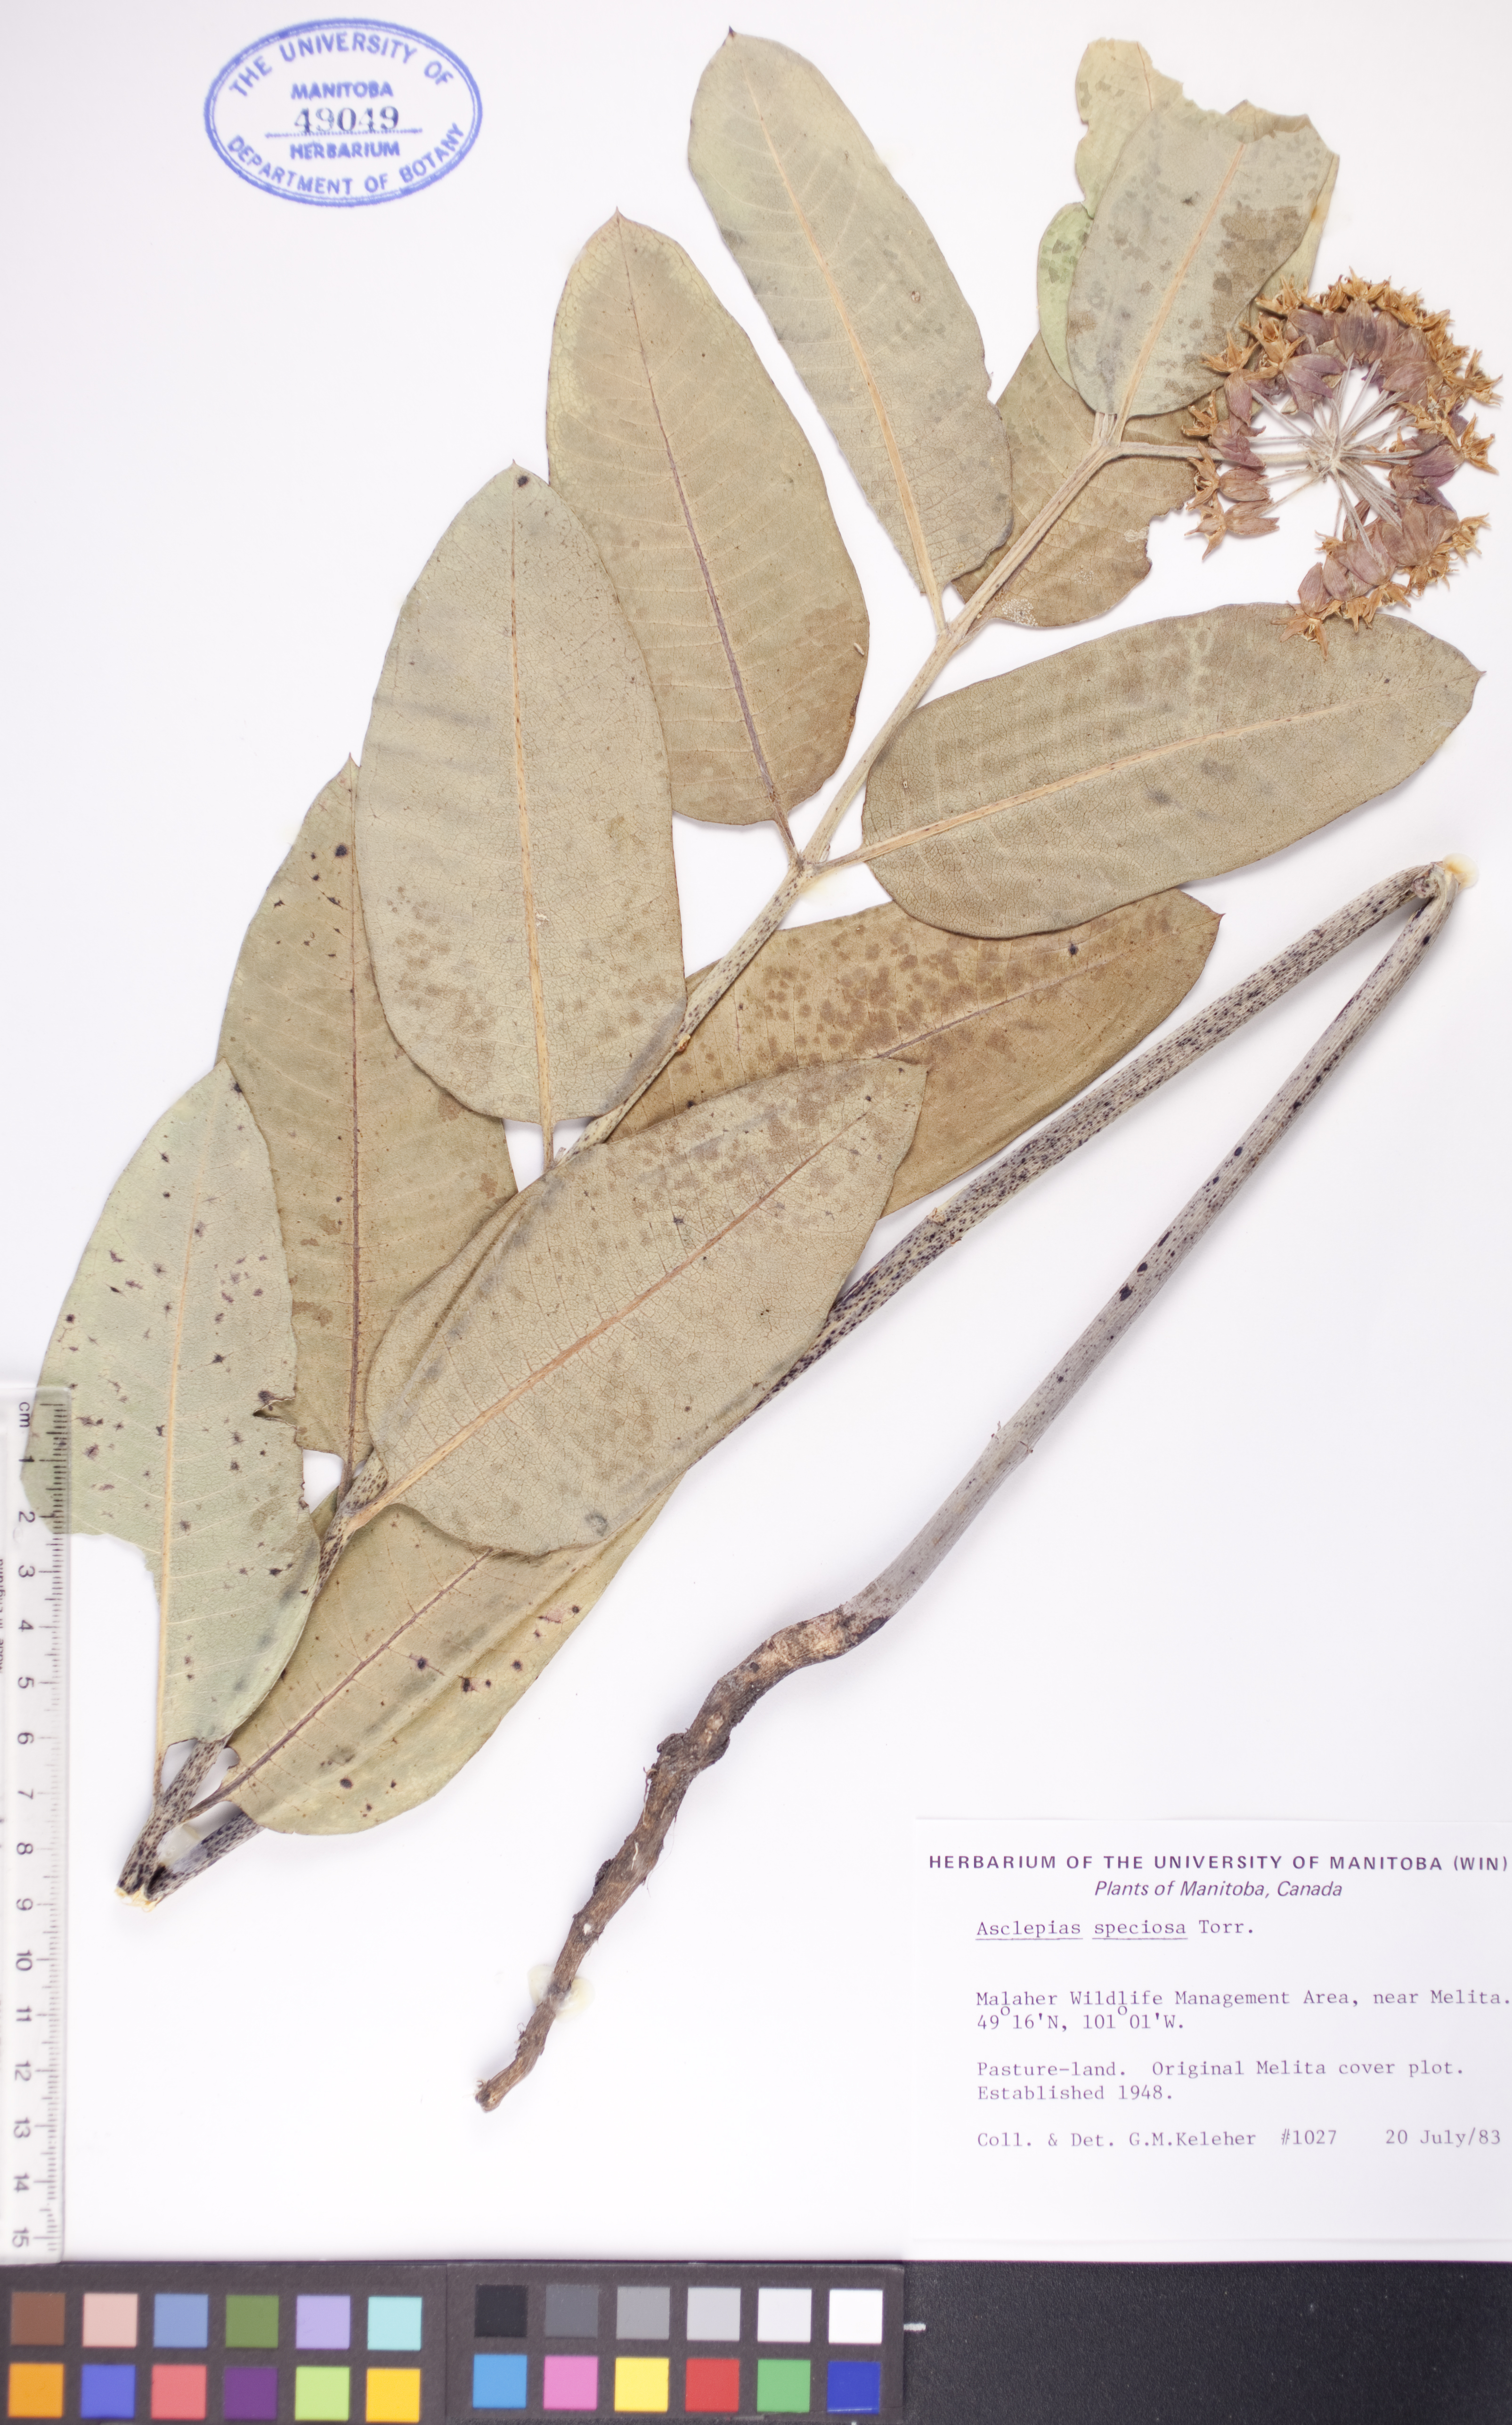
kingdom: Plantae
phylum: Tracheophyta
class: Magnoliopsida
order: Gentianales
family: Apocynaceae
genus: Asclepias
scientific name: Asclepias speciosa
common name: Showy milkweed
